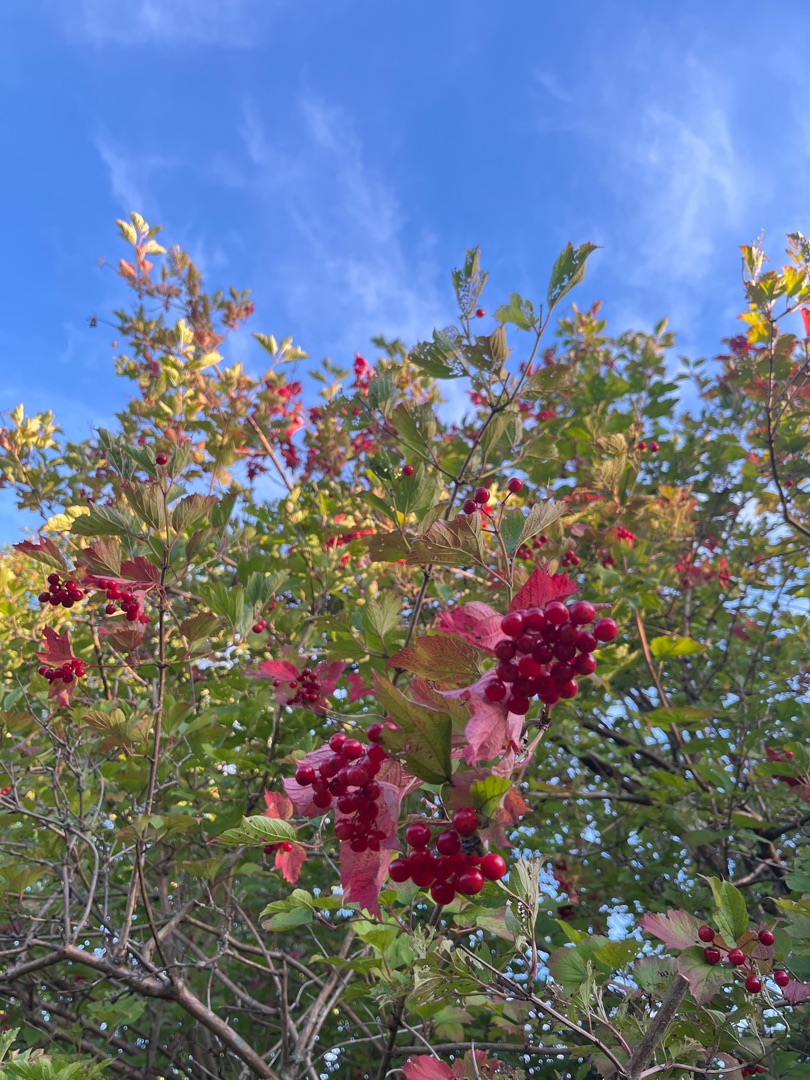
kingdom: Plantae
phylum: Tracheophyta
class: Magnoliopsida
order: Dipsacales
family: Viburnaceae
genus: Viburnum
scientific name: Viburnum opulus
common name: Kvalkved
